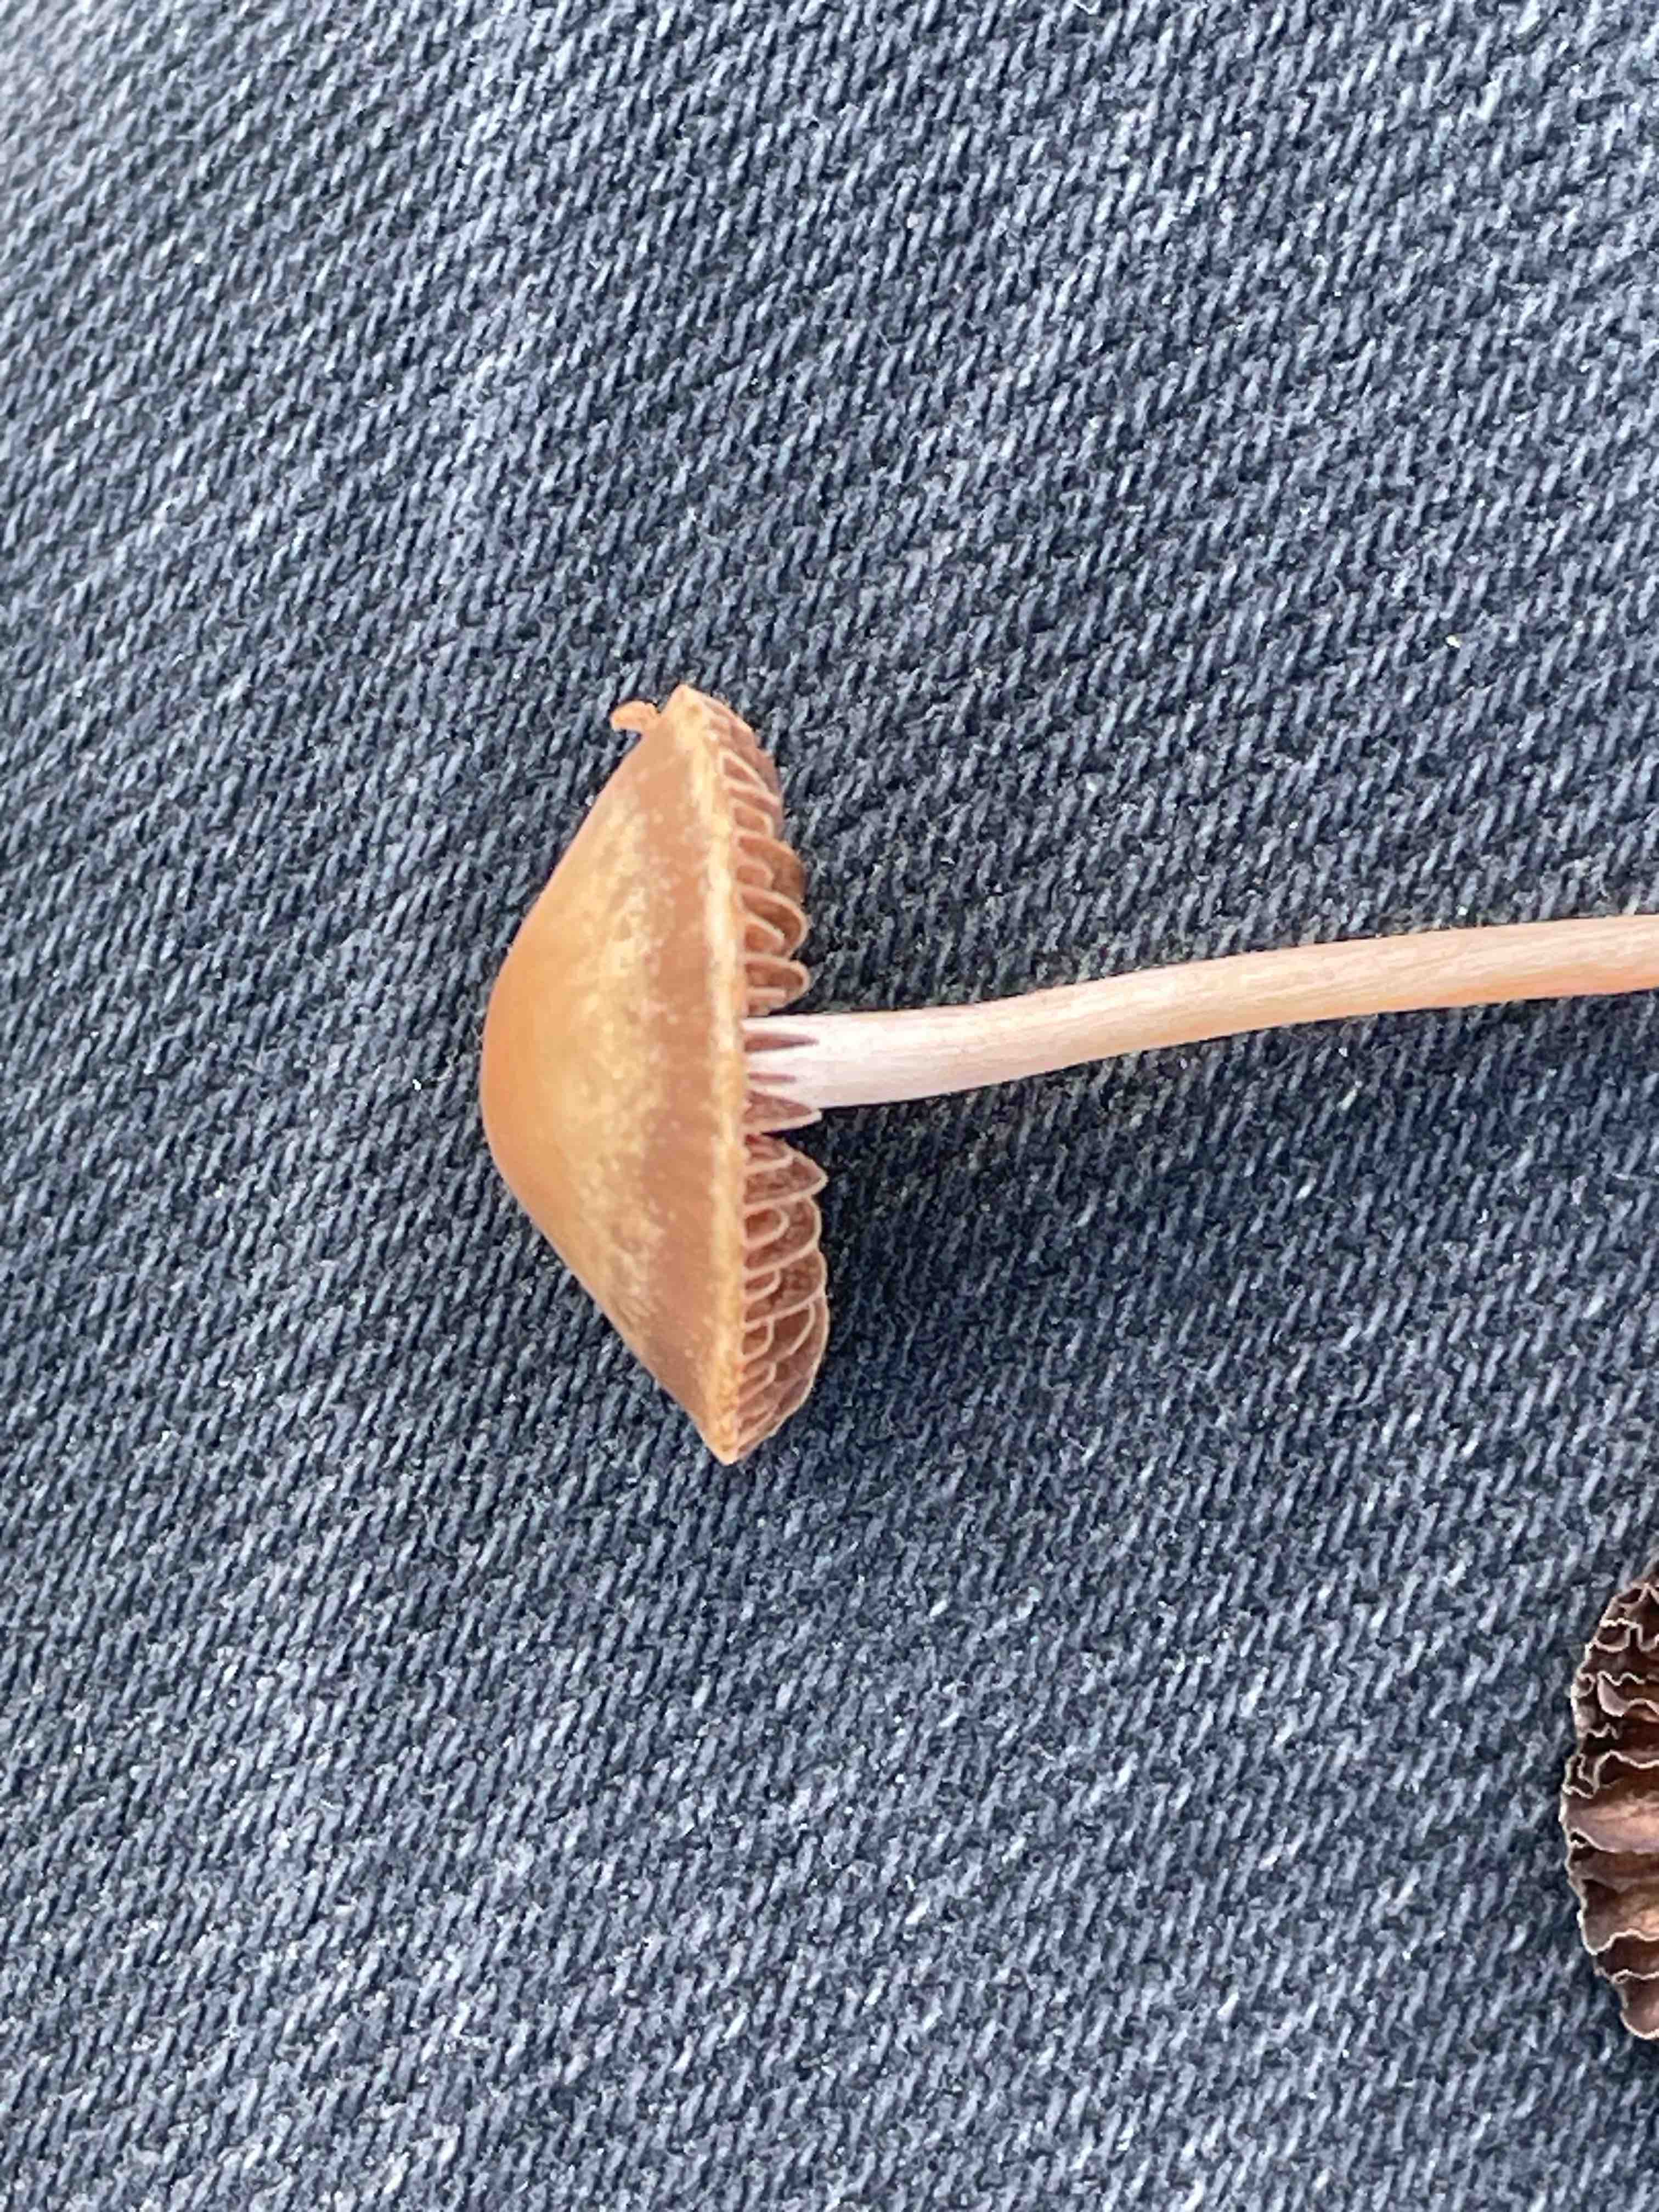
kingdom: Fungi
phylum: Basidiomycota
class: Agaricomycetes
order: Agaricales
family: Bolbitiaceae
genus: Panaeolina
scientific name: Panaeolina foenisecii
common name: høslætsvamp
